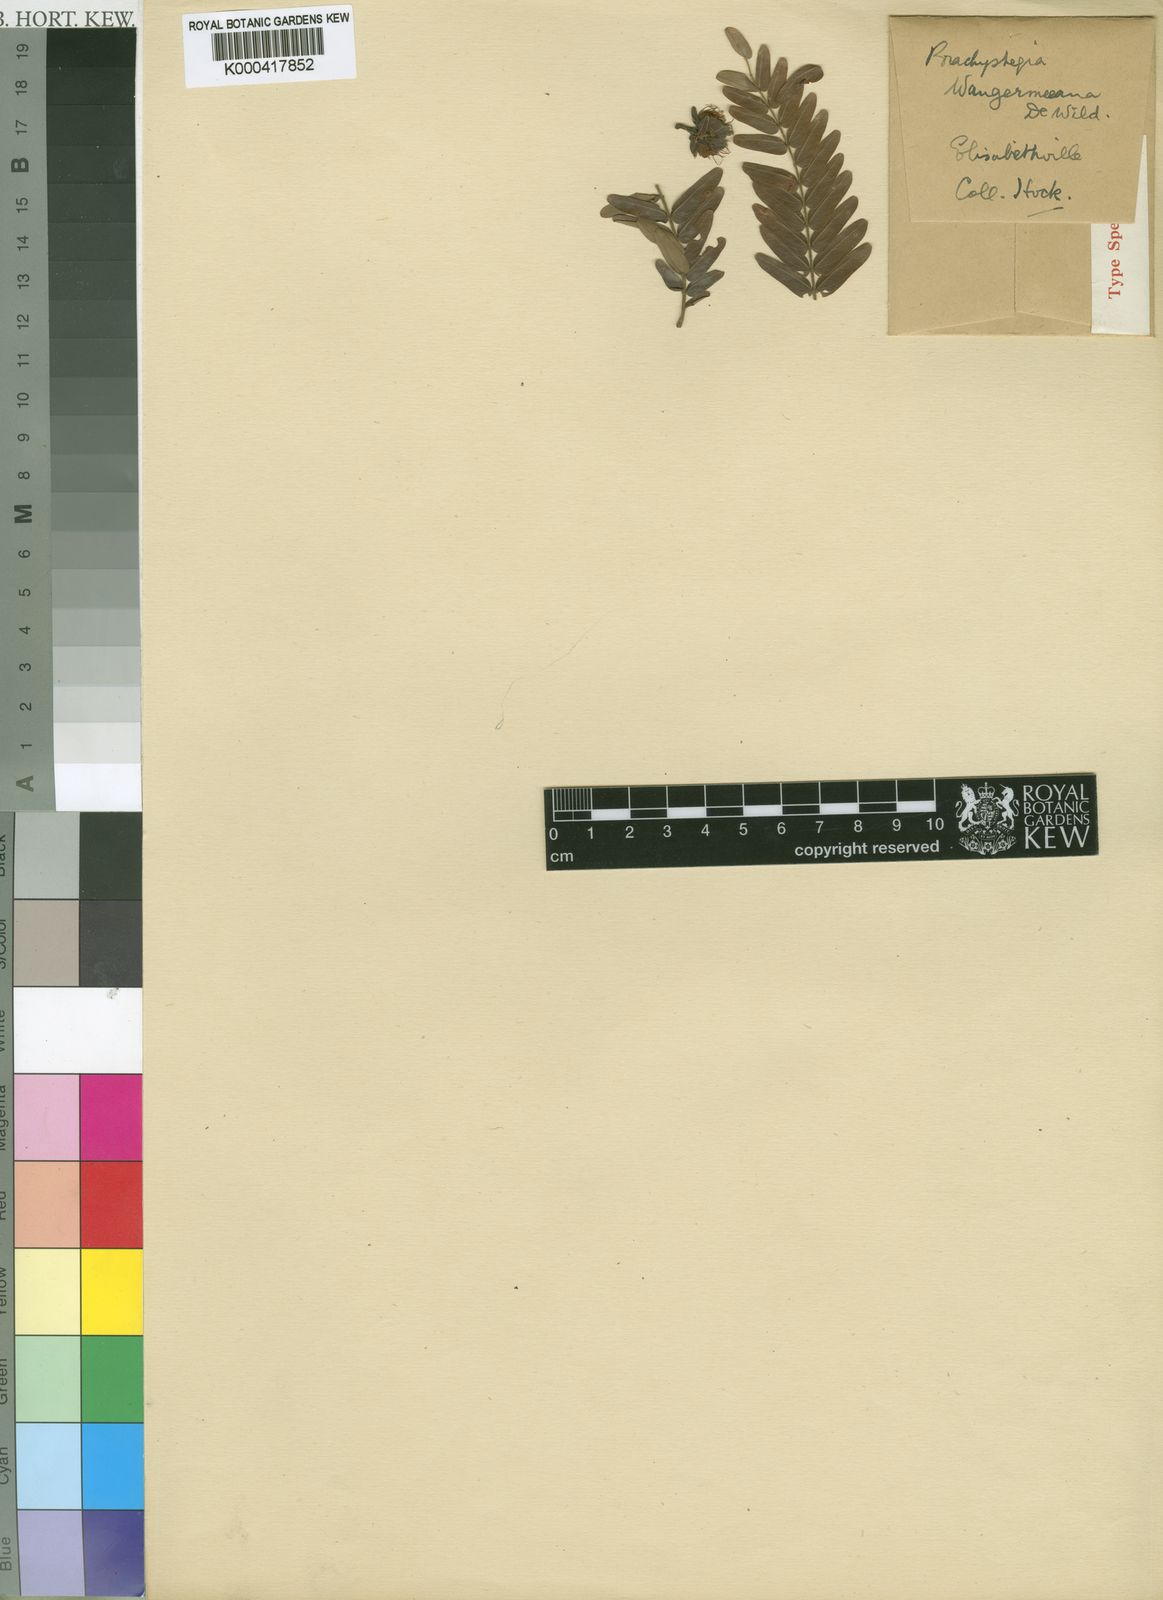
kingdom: Plantae
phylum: Tracheophyta
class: Magnoliopsida
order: Fabales
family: Fabaceae
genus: Brachystegia
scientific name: Brachystegia tamarindoides
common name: Mountain acacia
